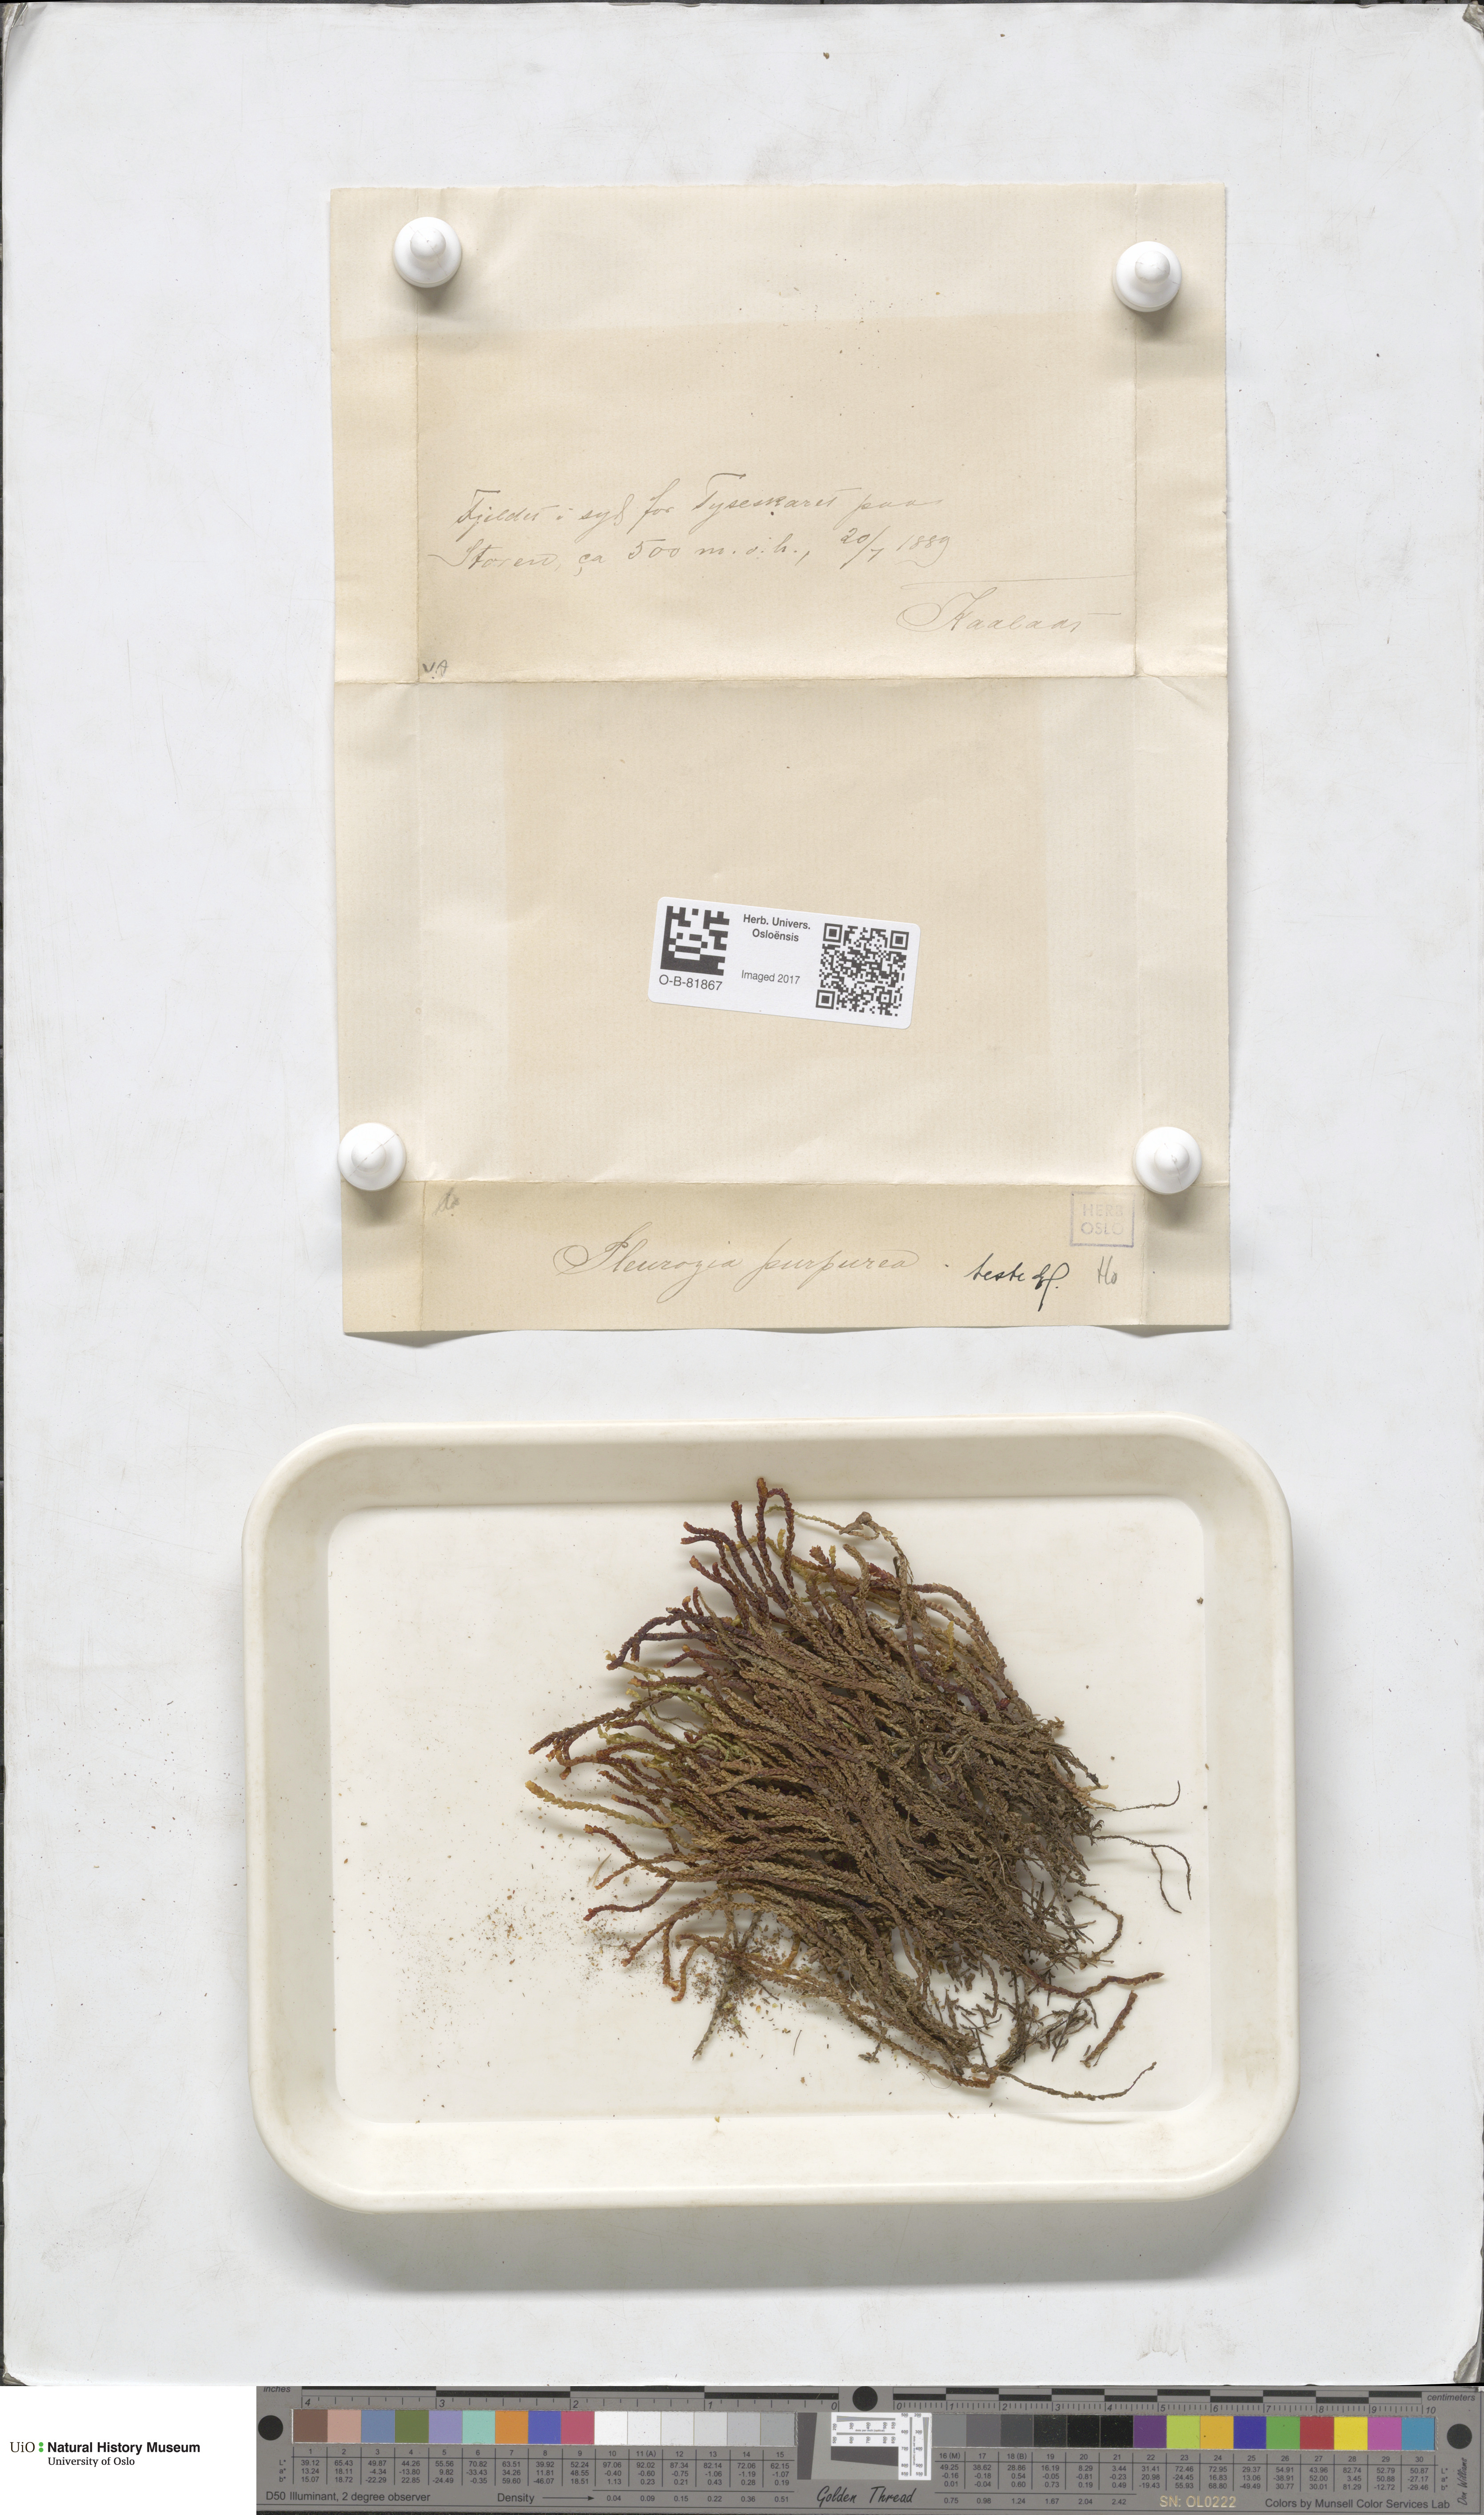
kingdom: Plantae
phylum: Marchantiophyta
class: Jungermanniopsida
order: Pleuroziales
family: Pleuroziaceae
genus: Pleurozia
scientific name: Pleurozia purpurea
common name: Purple spoonwort
